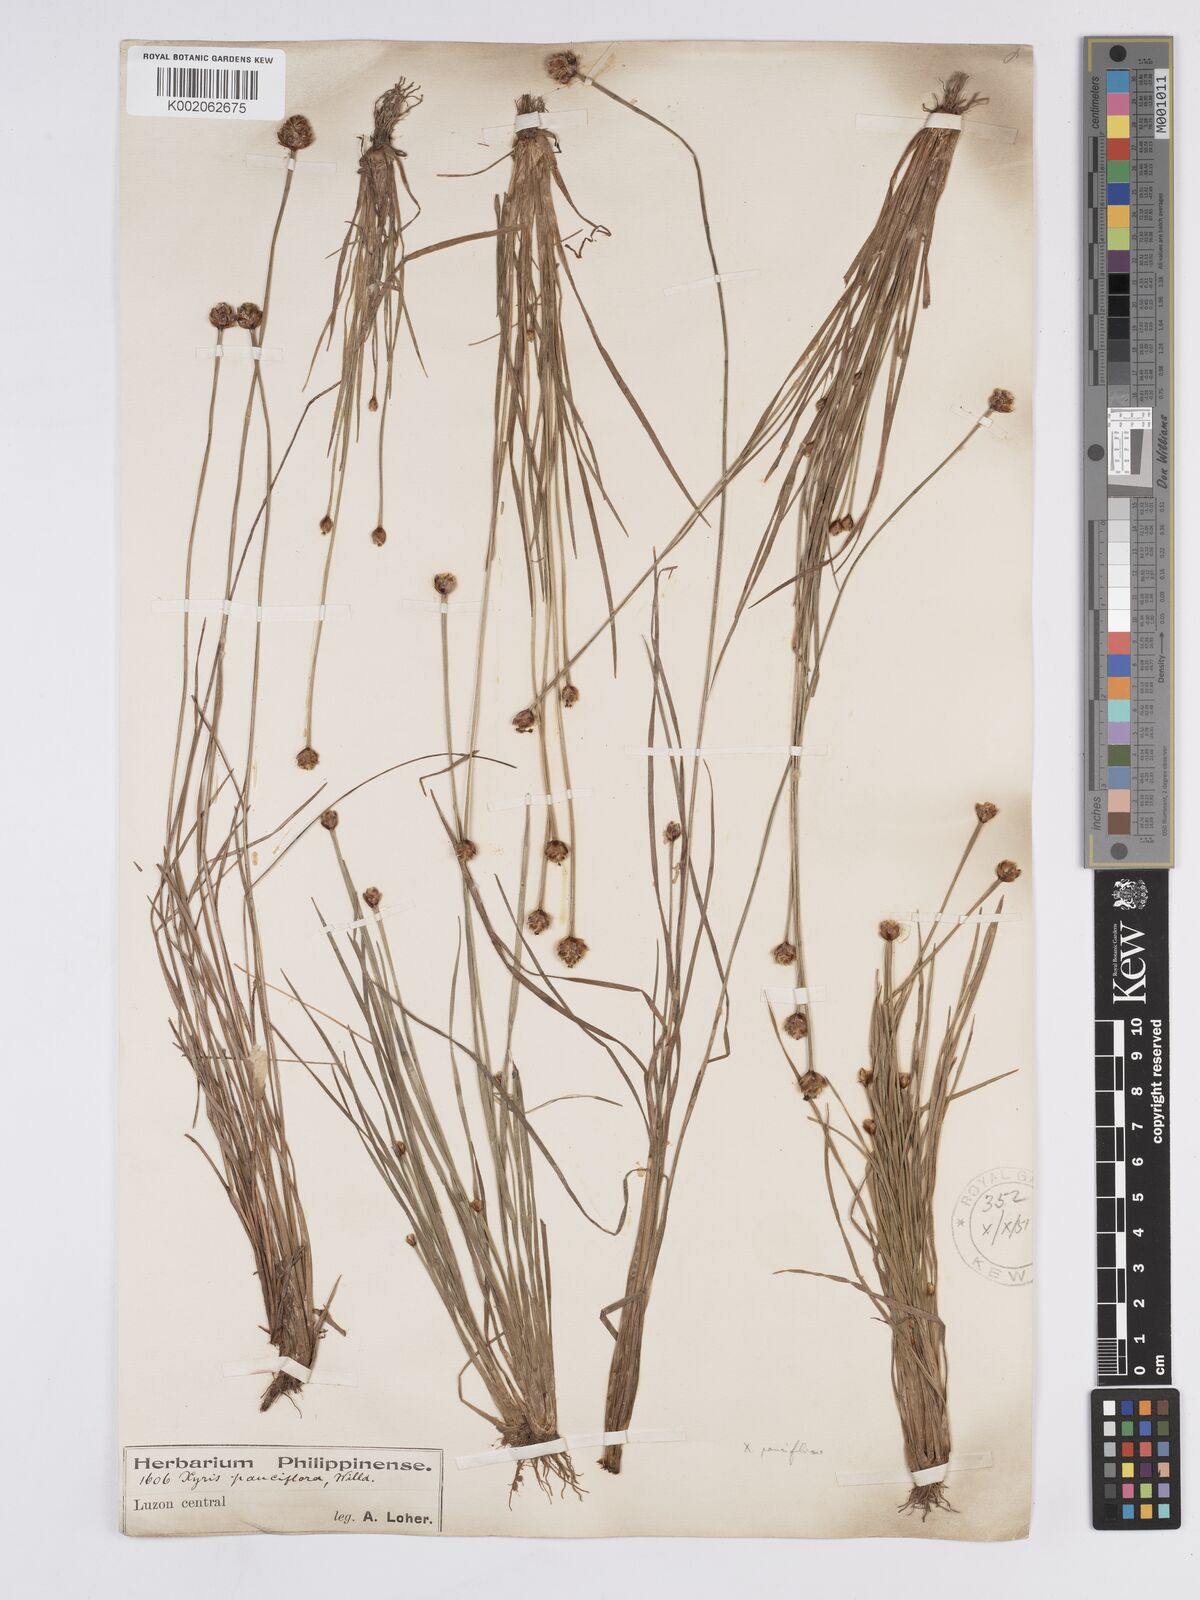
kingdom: Plantae
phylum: Tracheophyta
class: Liliopsida
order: Poales
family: Xyridaceae
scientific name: Xyridaceae
